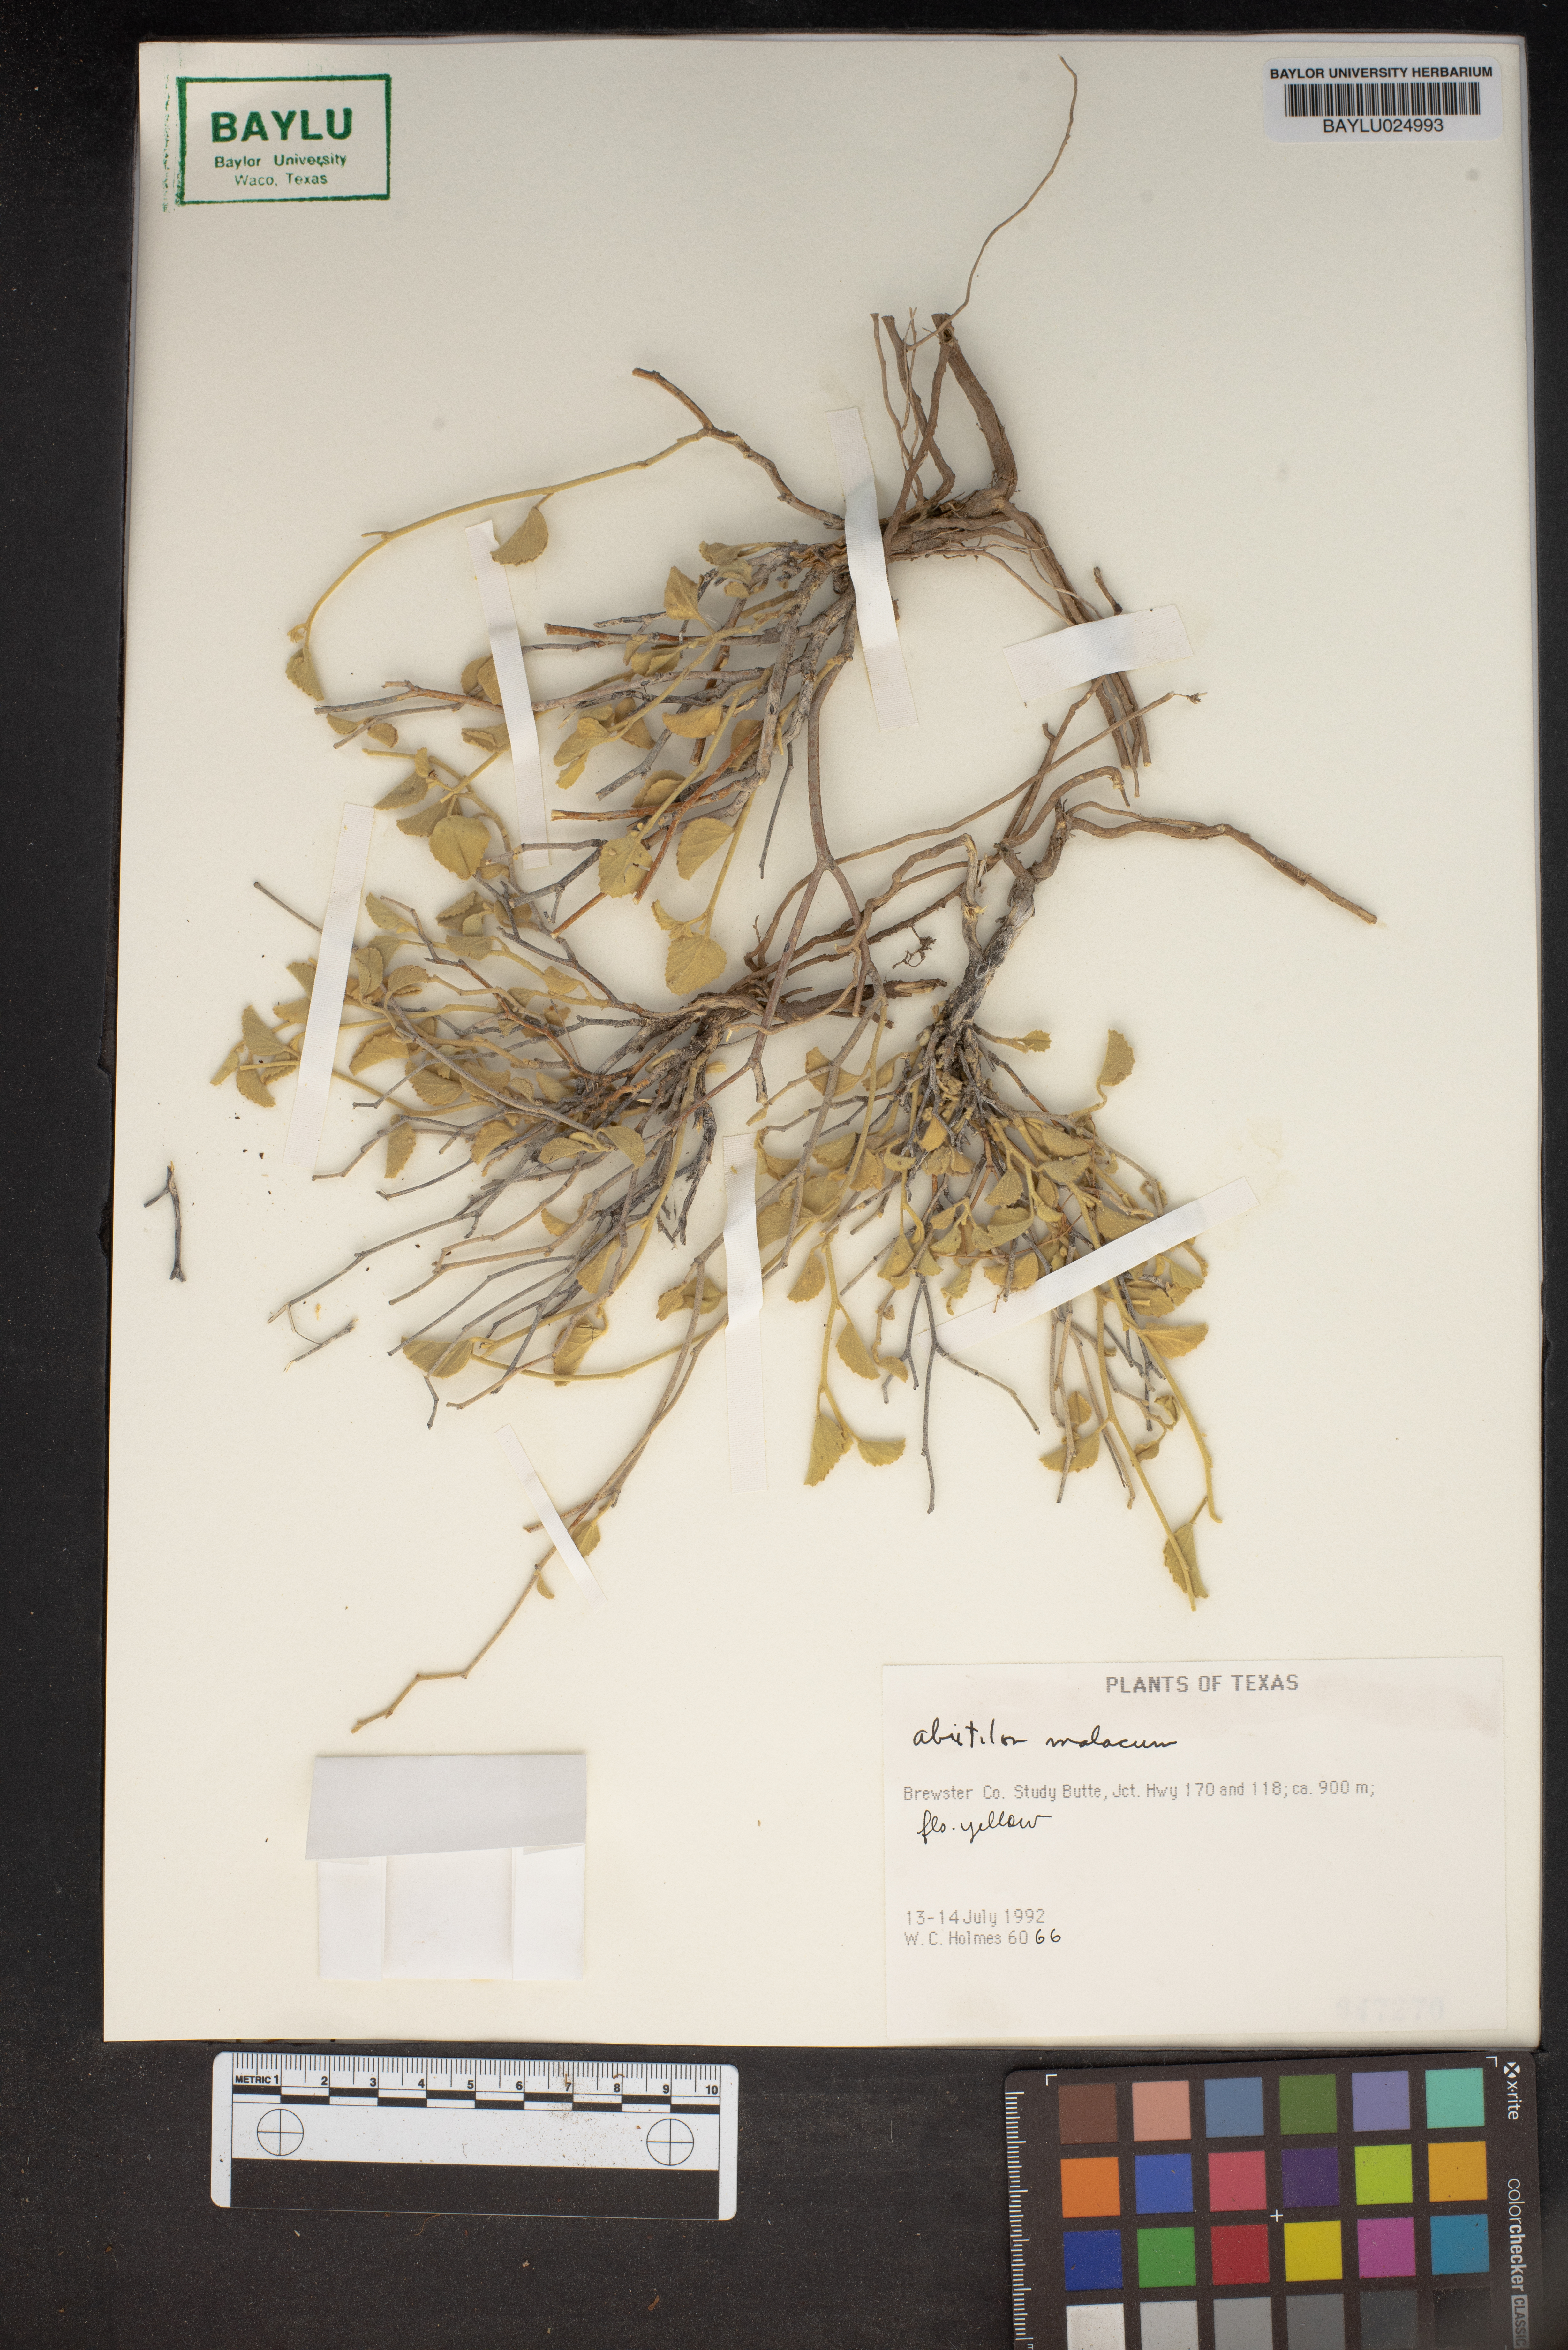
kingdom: Plantae
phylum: Tracheophyta
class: Magnoliopsida
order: Malvales
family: Malvaceae
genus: Abutilon
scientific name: Abutilon malacum
